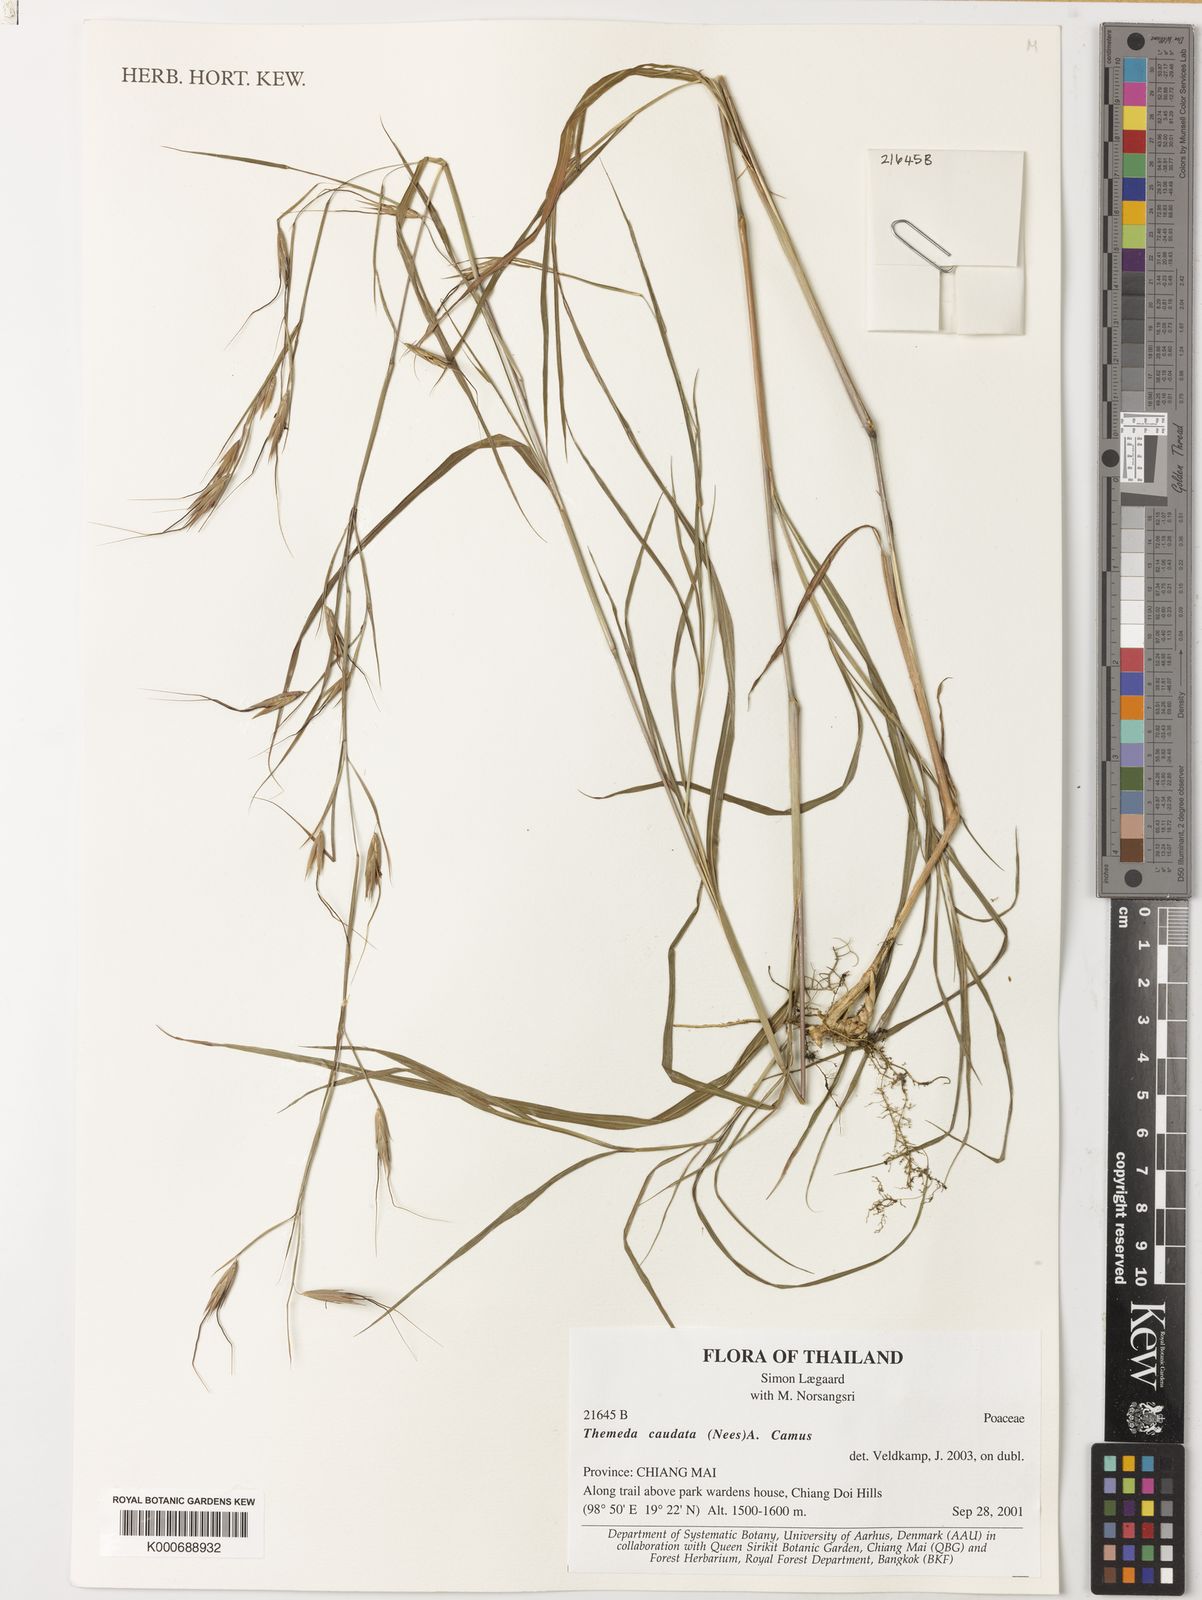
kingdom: Plantae
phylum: Tracheophyta
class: Liliopsida
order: Poales
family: Poaceae
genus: Themeda
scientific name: Themeda caudata
